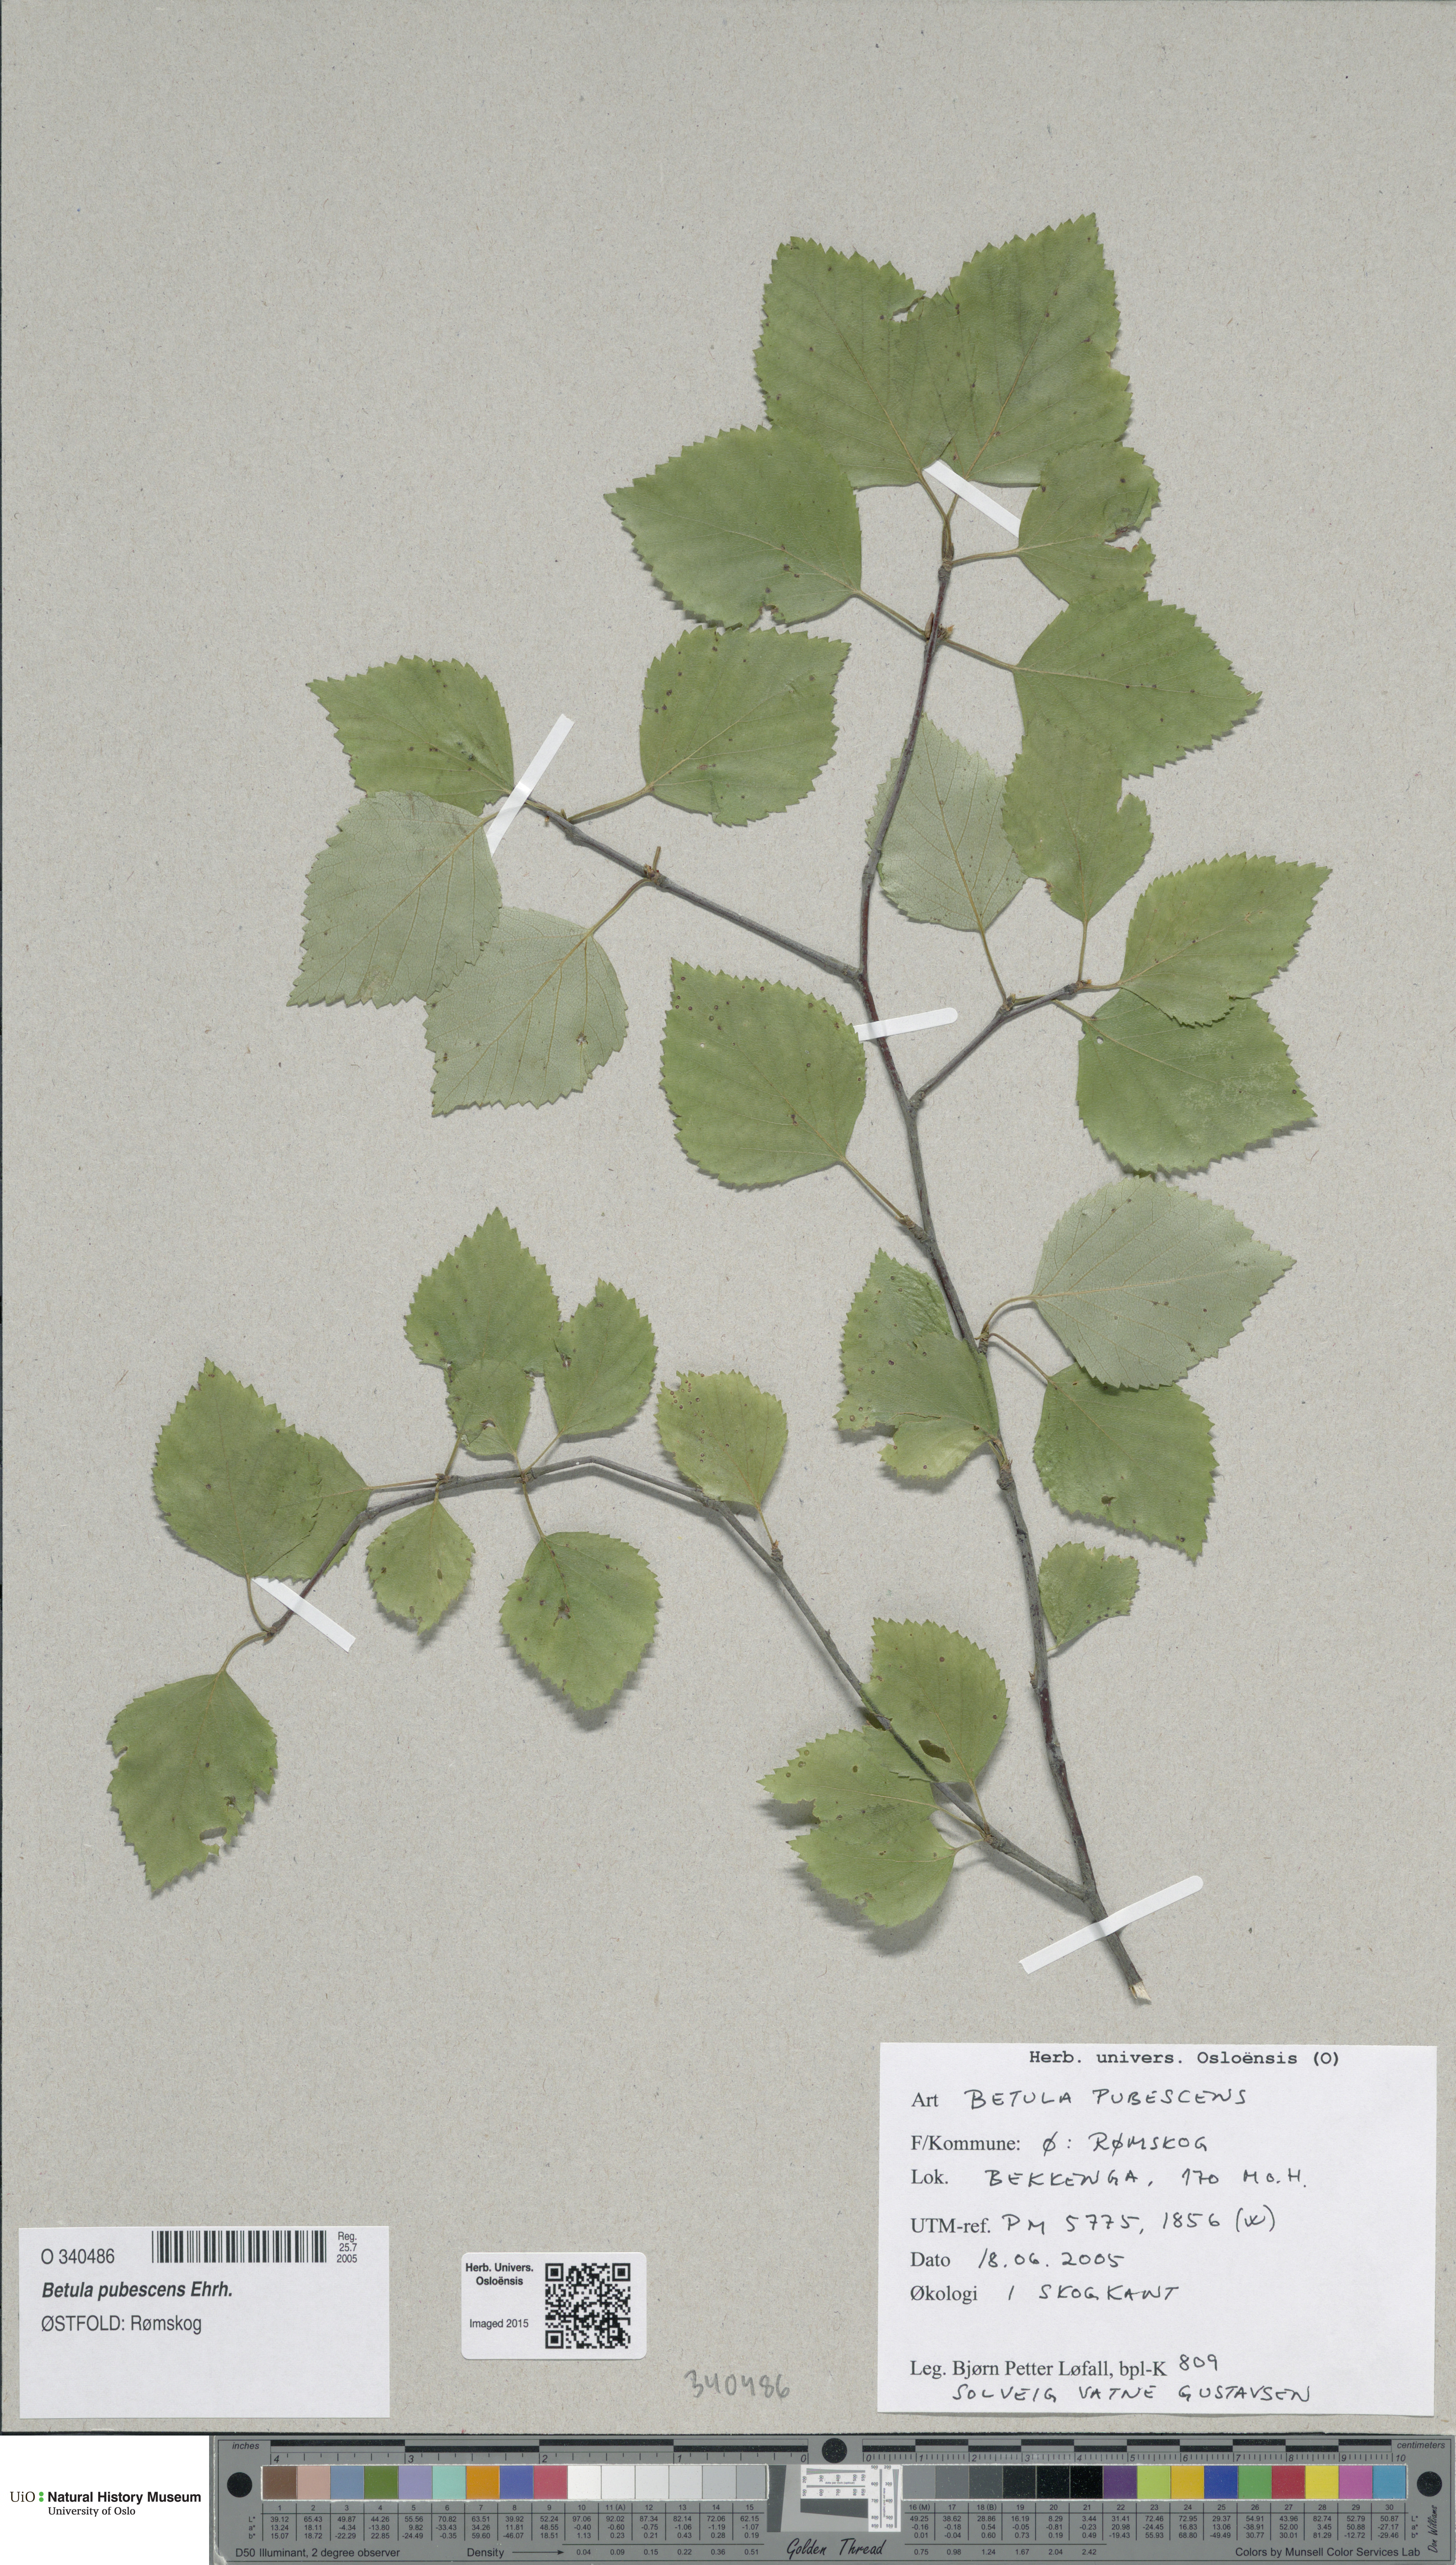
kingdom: Plantae
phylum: Tracheophyta
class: Magnoliopsida
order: Fagales
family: Betulaceae
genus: Betula
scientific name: Betula pubescens
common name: Downy birch
